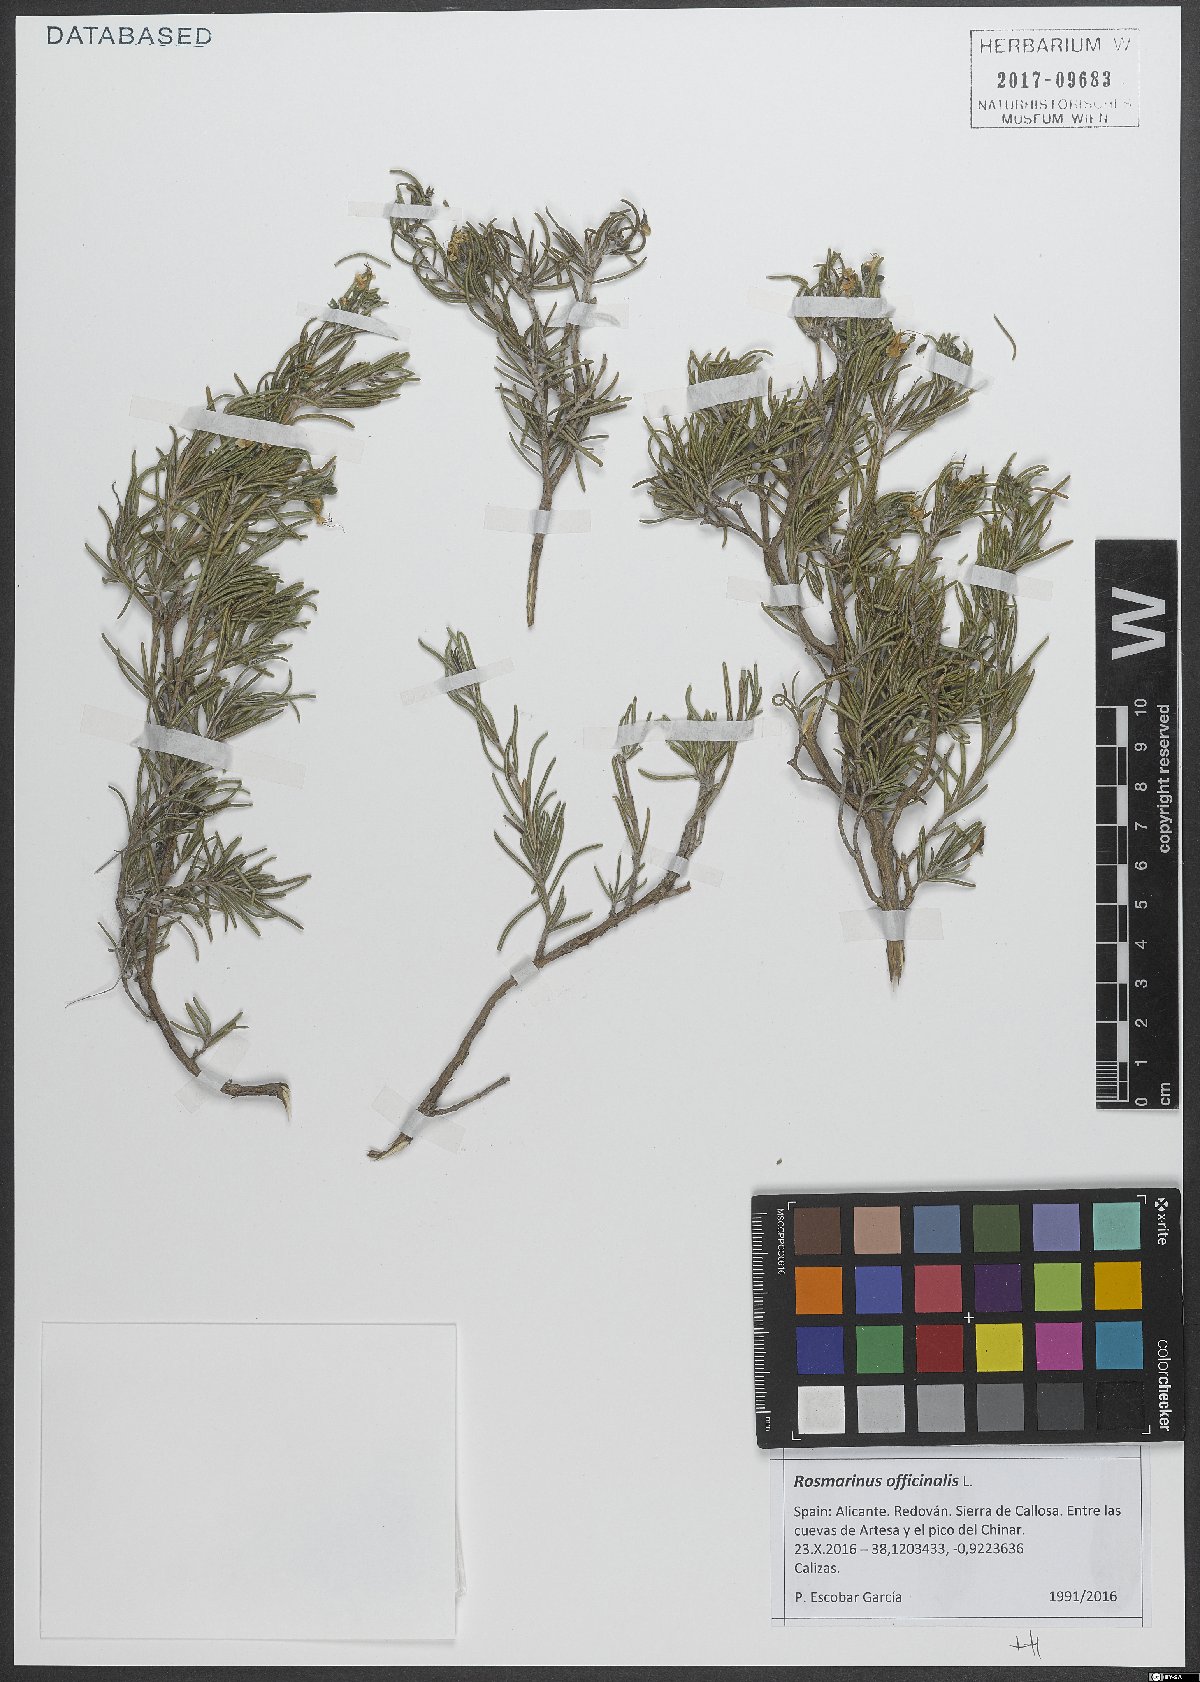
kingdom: Plantae
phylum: Tracheophyta
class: Magnoliopsida
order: Lamiales
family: Lamiaceae
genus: Salvia
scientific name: Salvia rosmarinus
